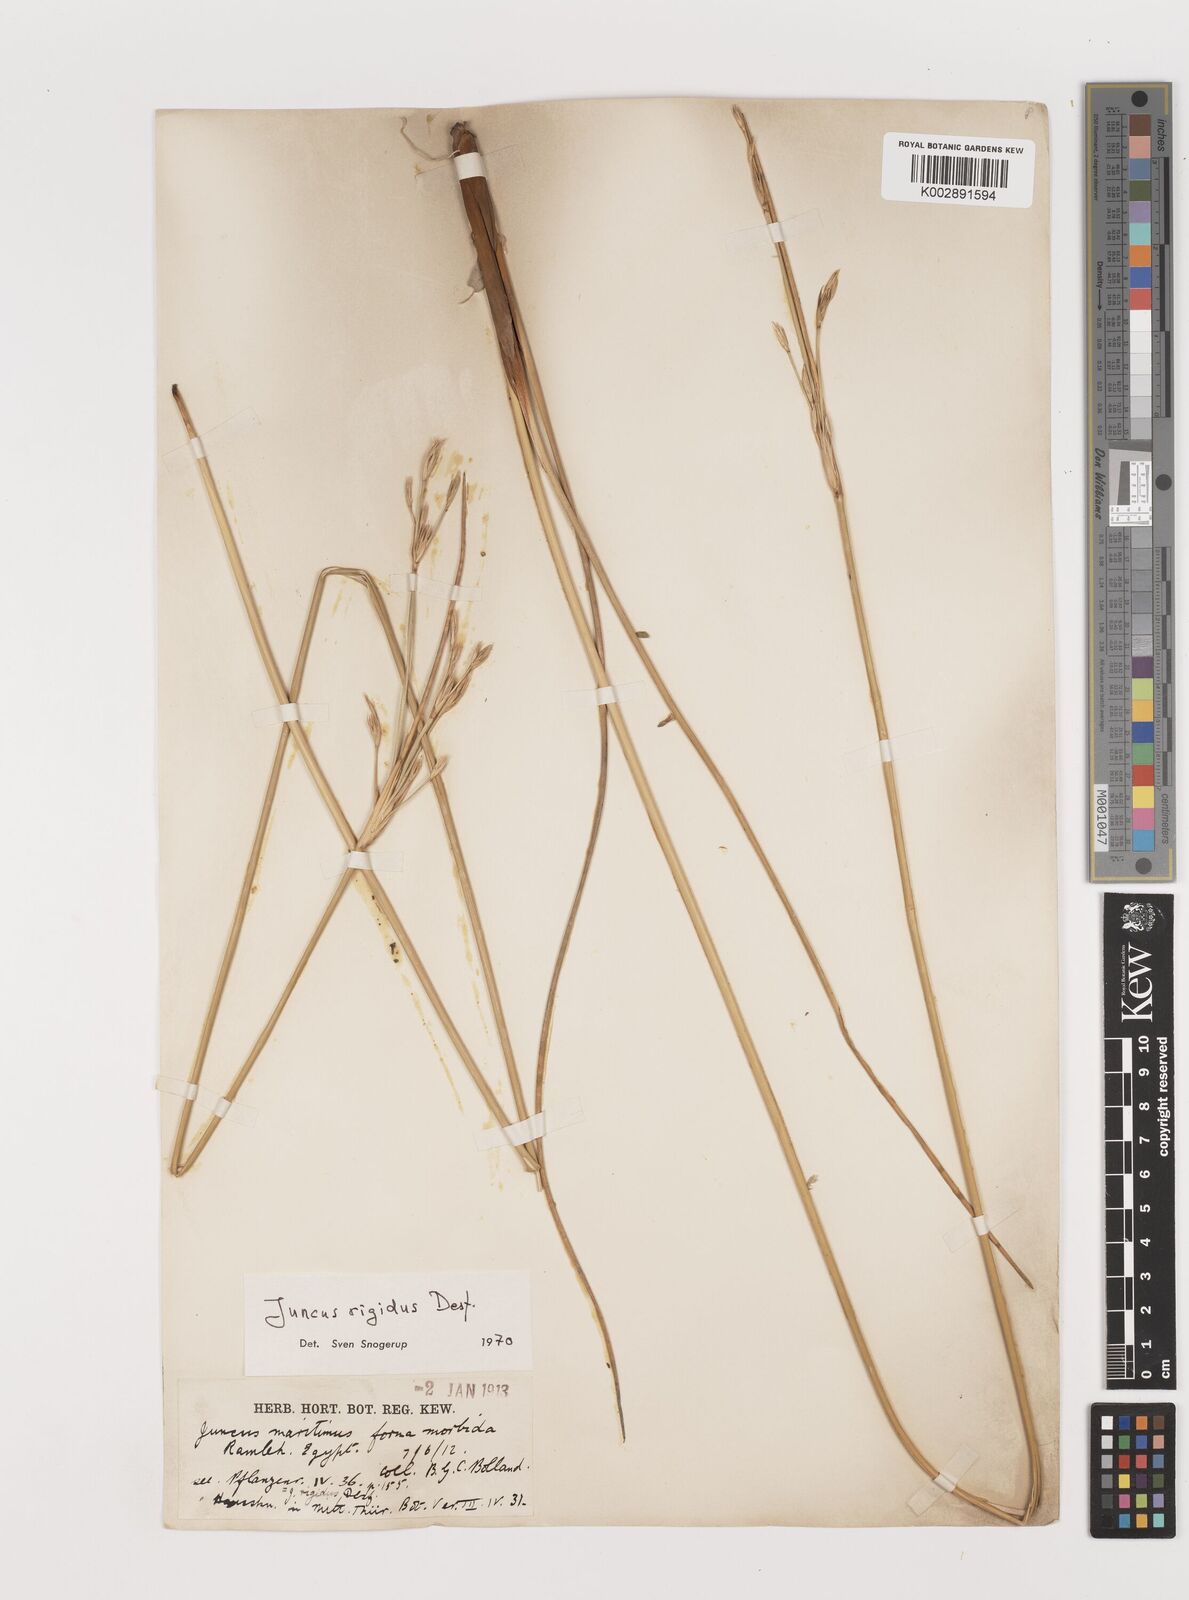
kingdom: Plantae
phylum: Tracheophyta
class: Liliopsida
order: Poales
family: Juncaceae
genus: Juncus
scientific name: Juncus rigidus
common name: Hard sea rush
